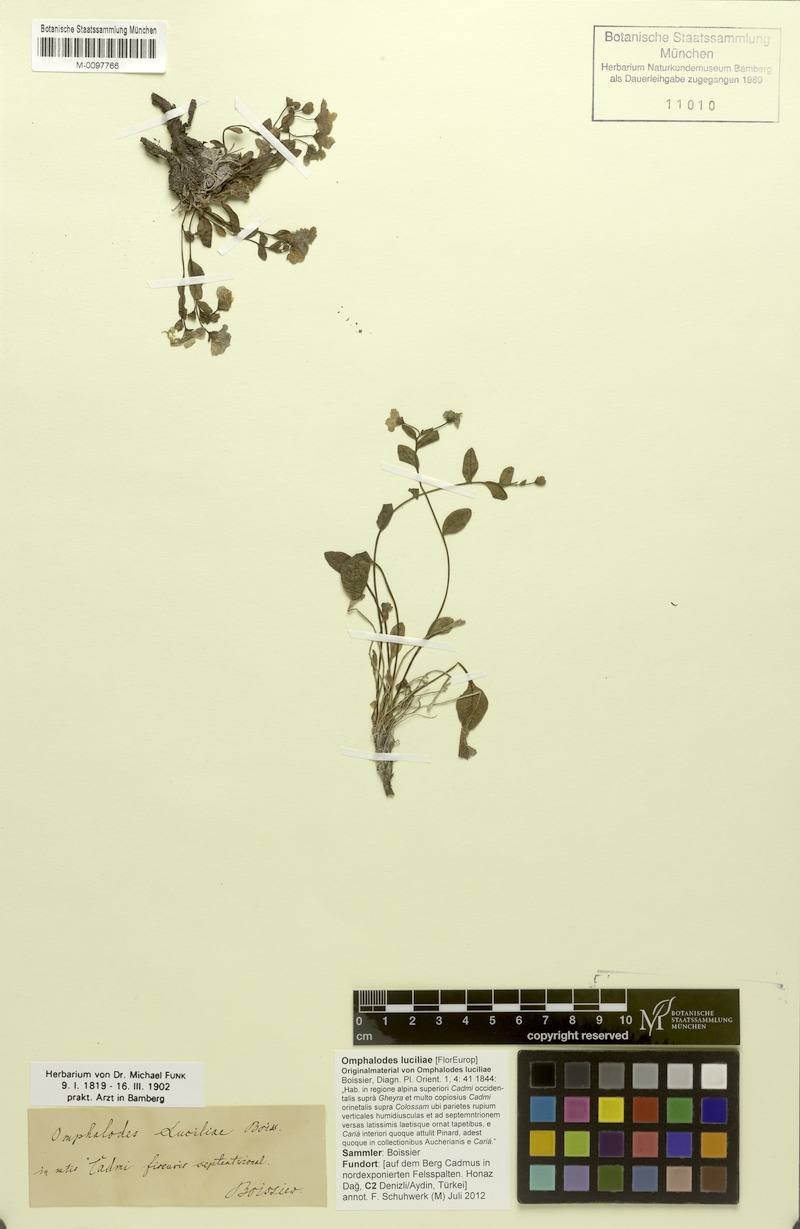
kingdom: Plantae
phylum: Tracheophyta
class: Magnoliopsida
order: Boraginales
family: Boraginaceae
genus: Omphalodes
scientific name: Omphalodes luciliae
